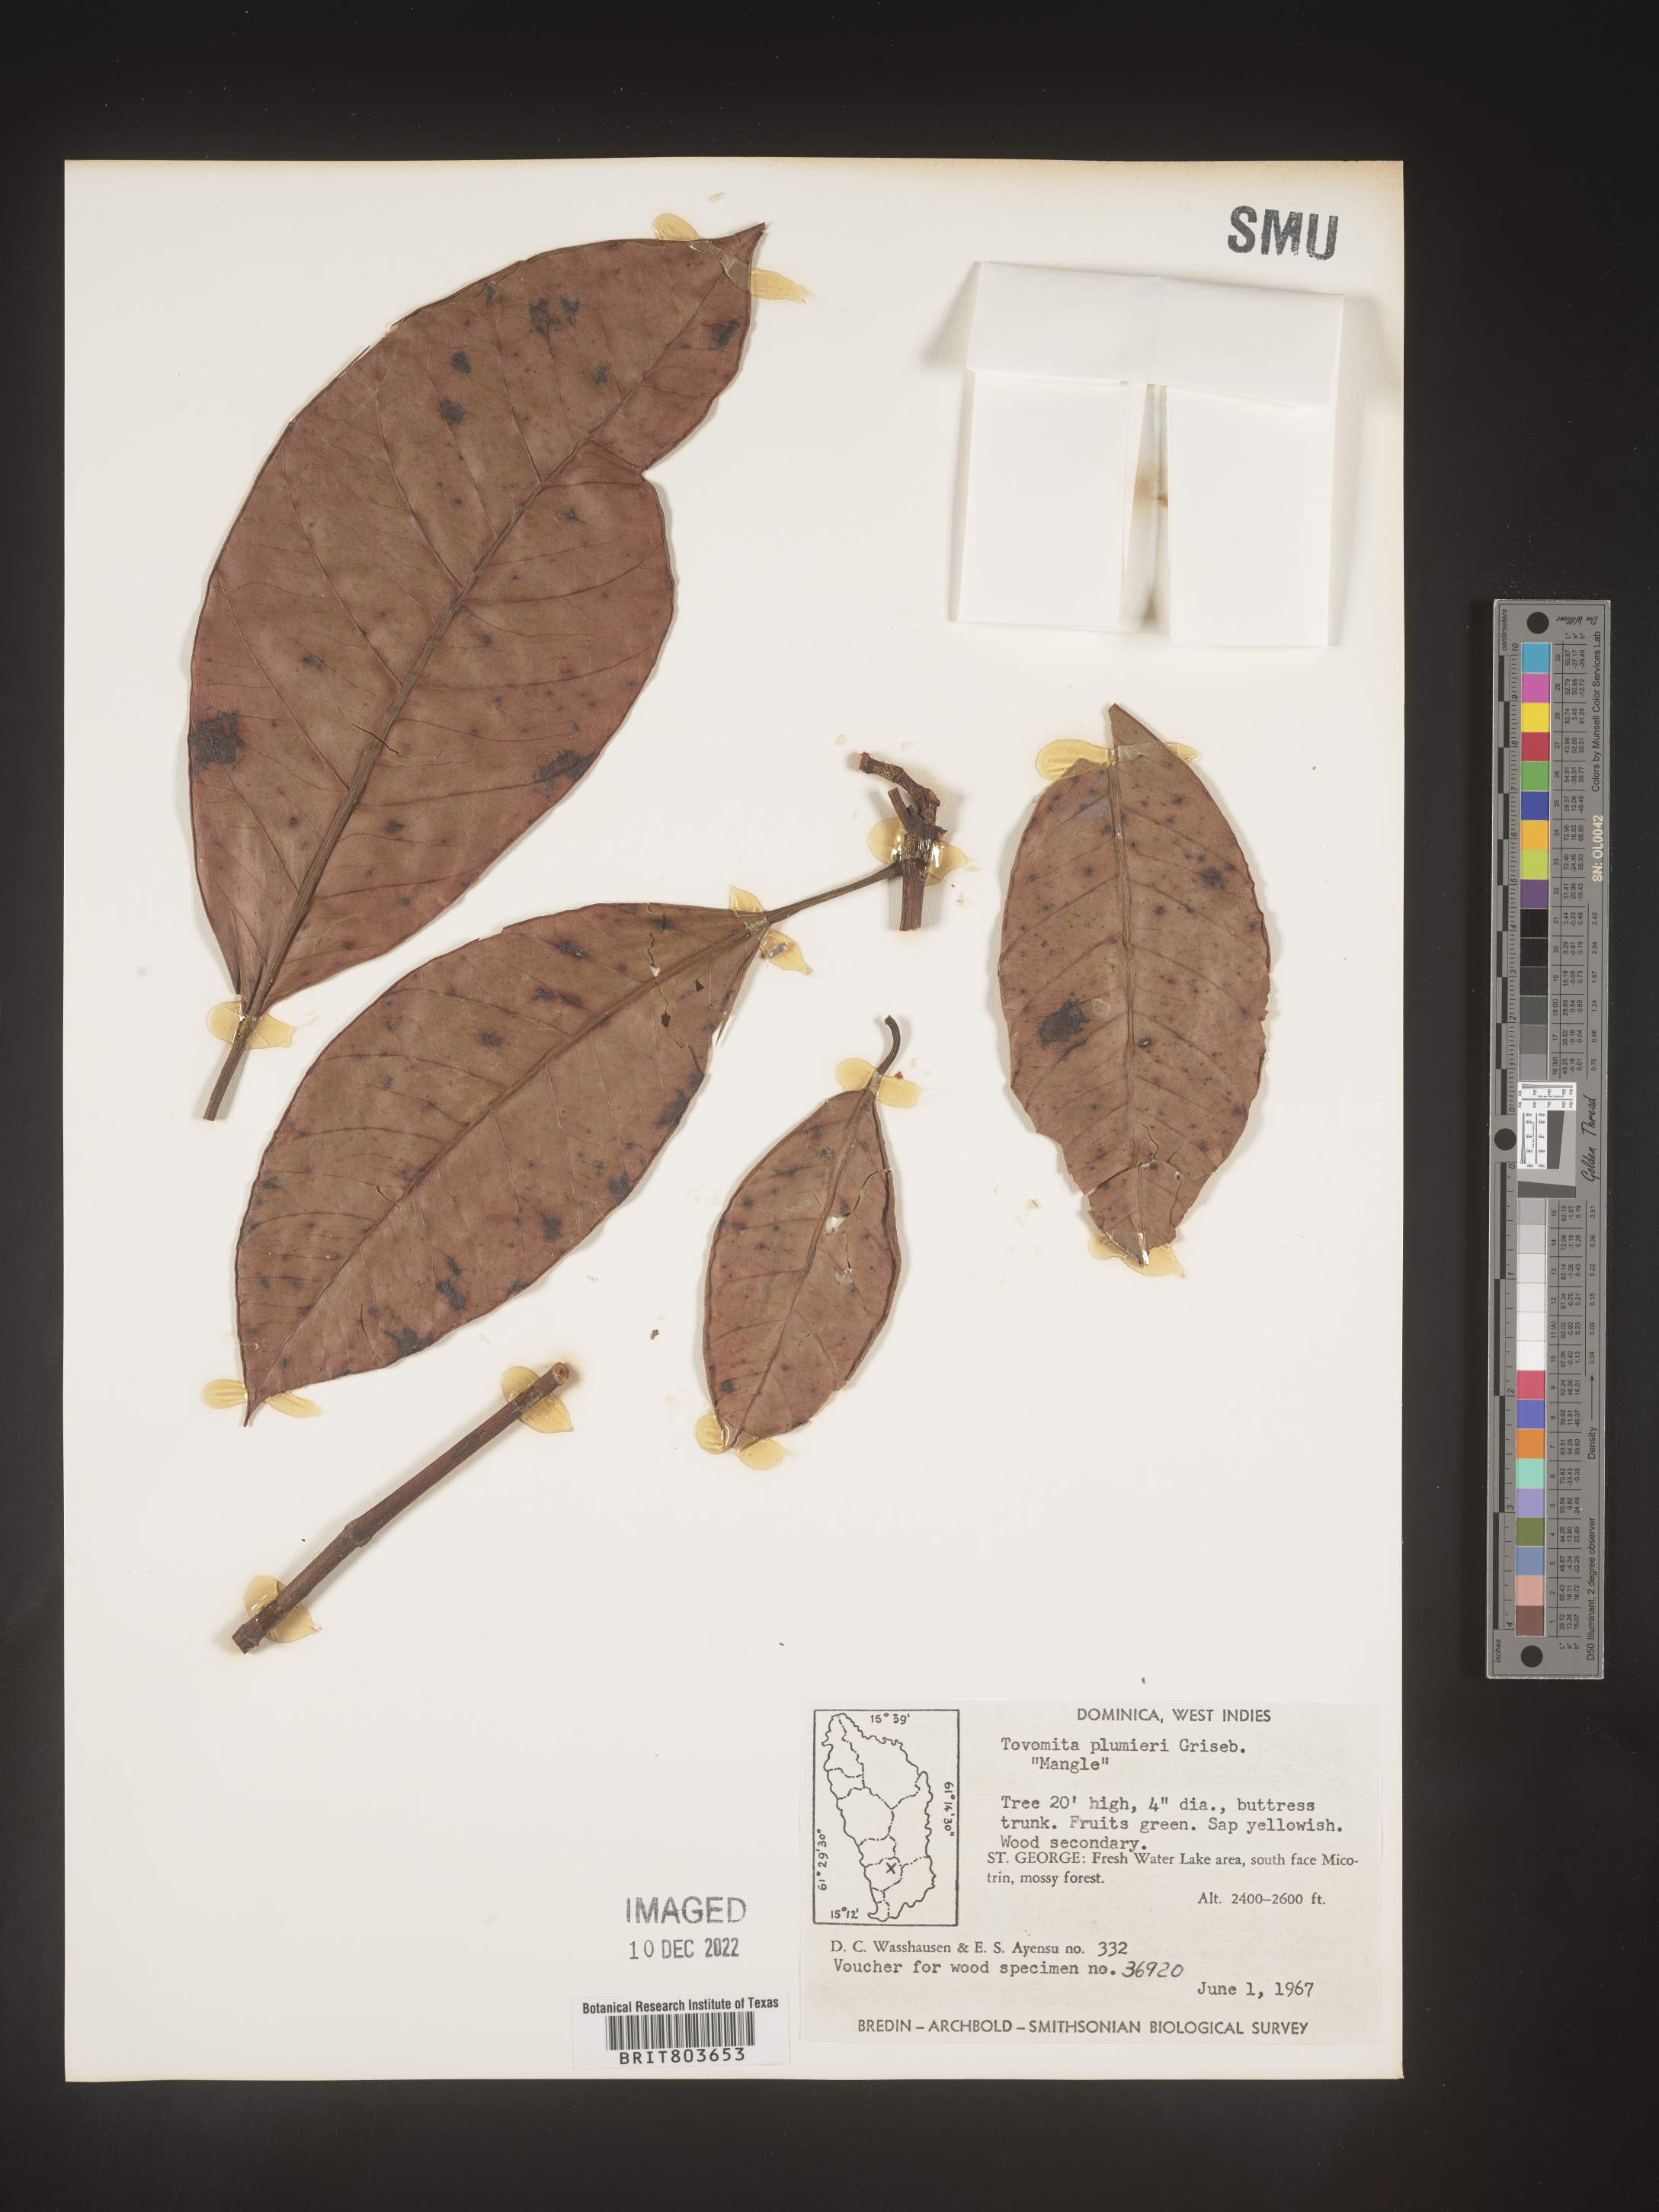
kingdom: Plantae
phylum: Tracheophyta
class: Magnoliopsida
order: Malpighiales
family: Clusiaceae
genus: Tovomita
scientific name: Tovomita
